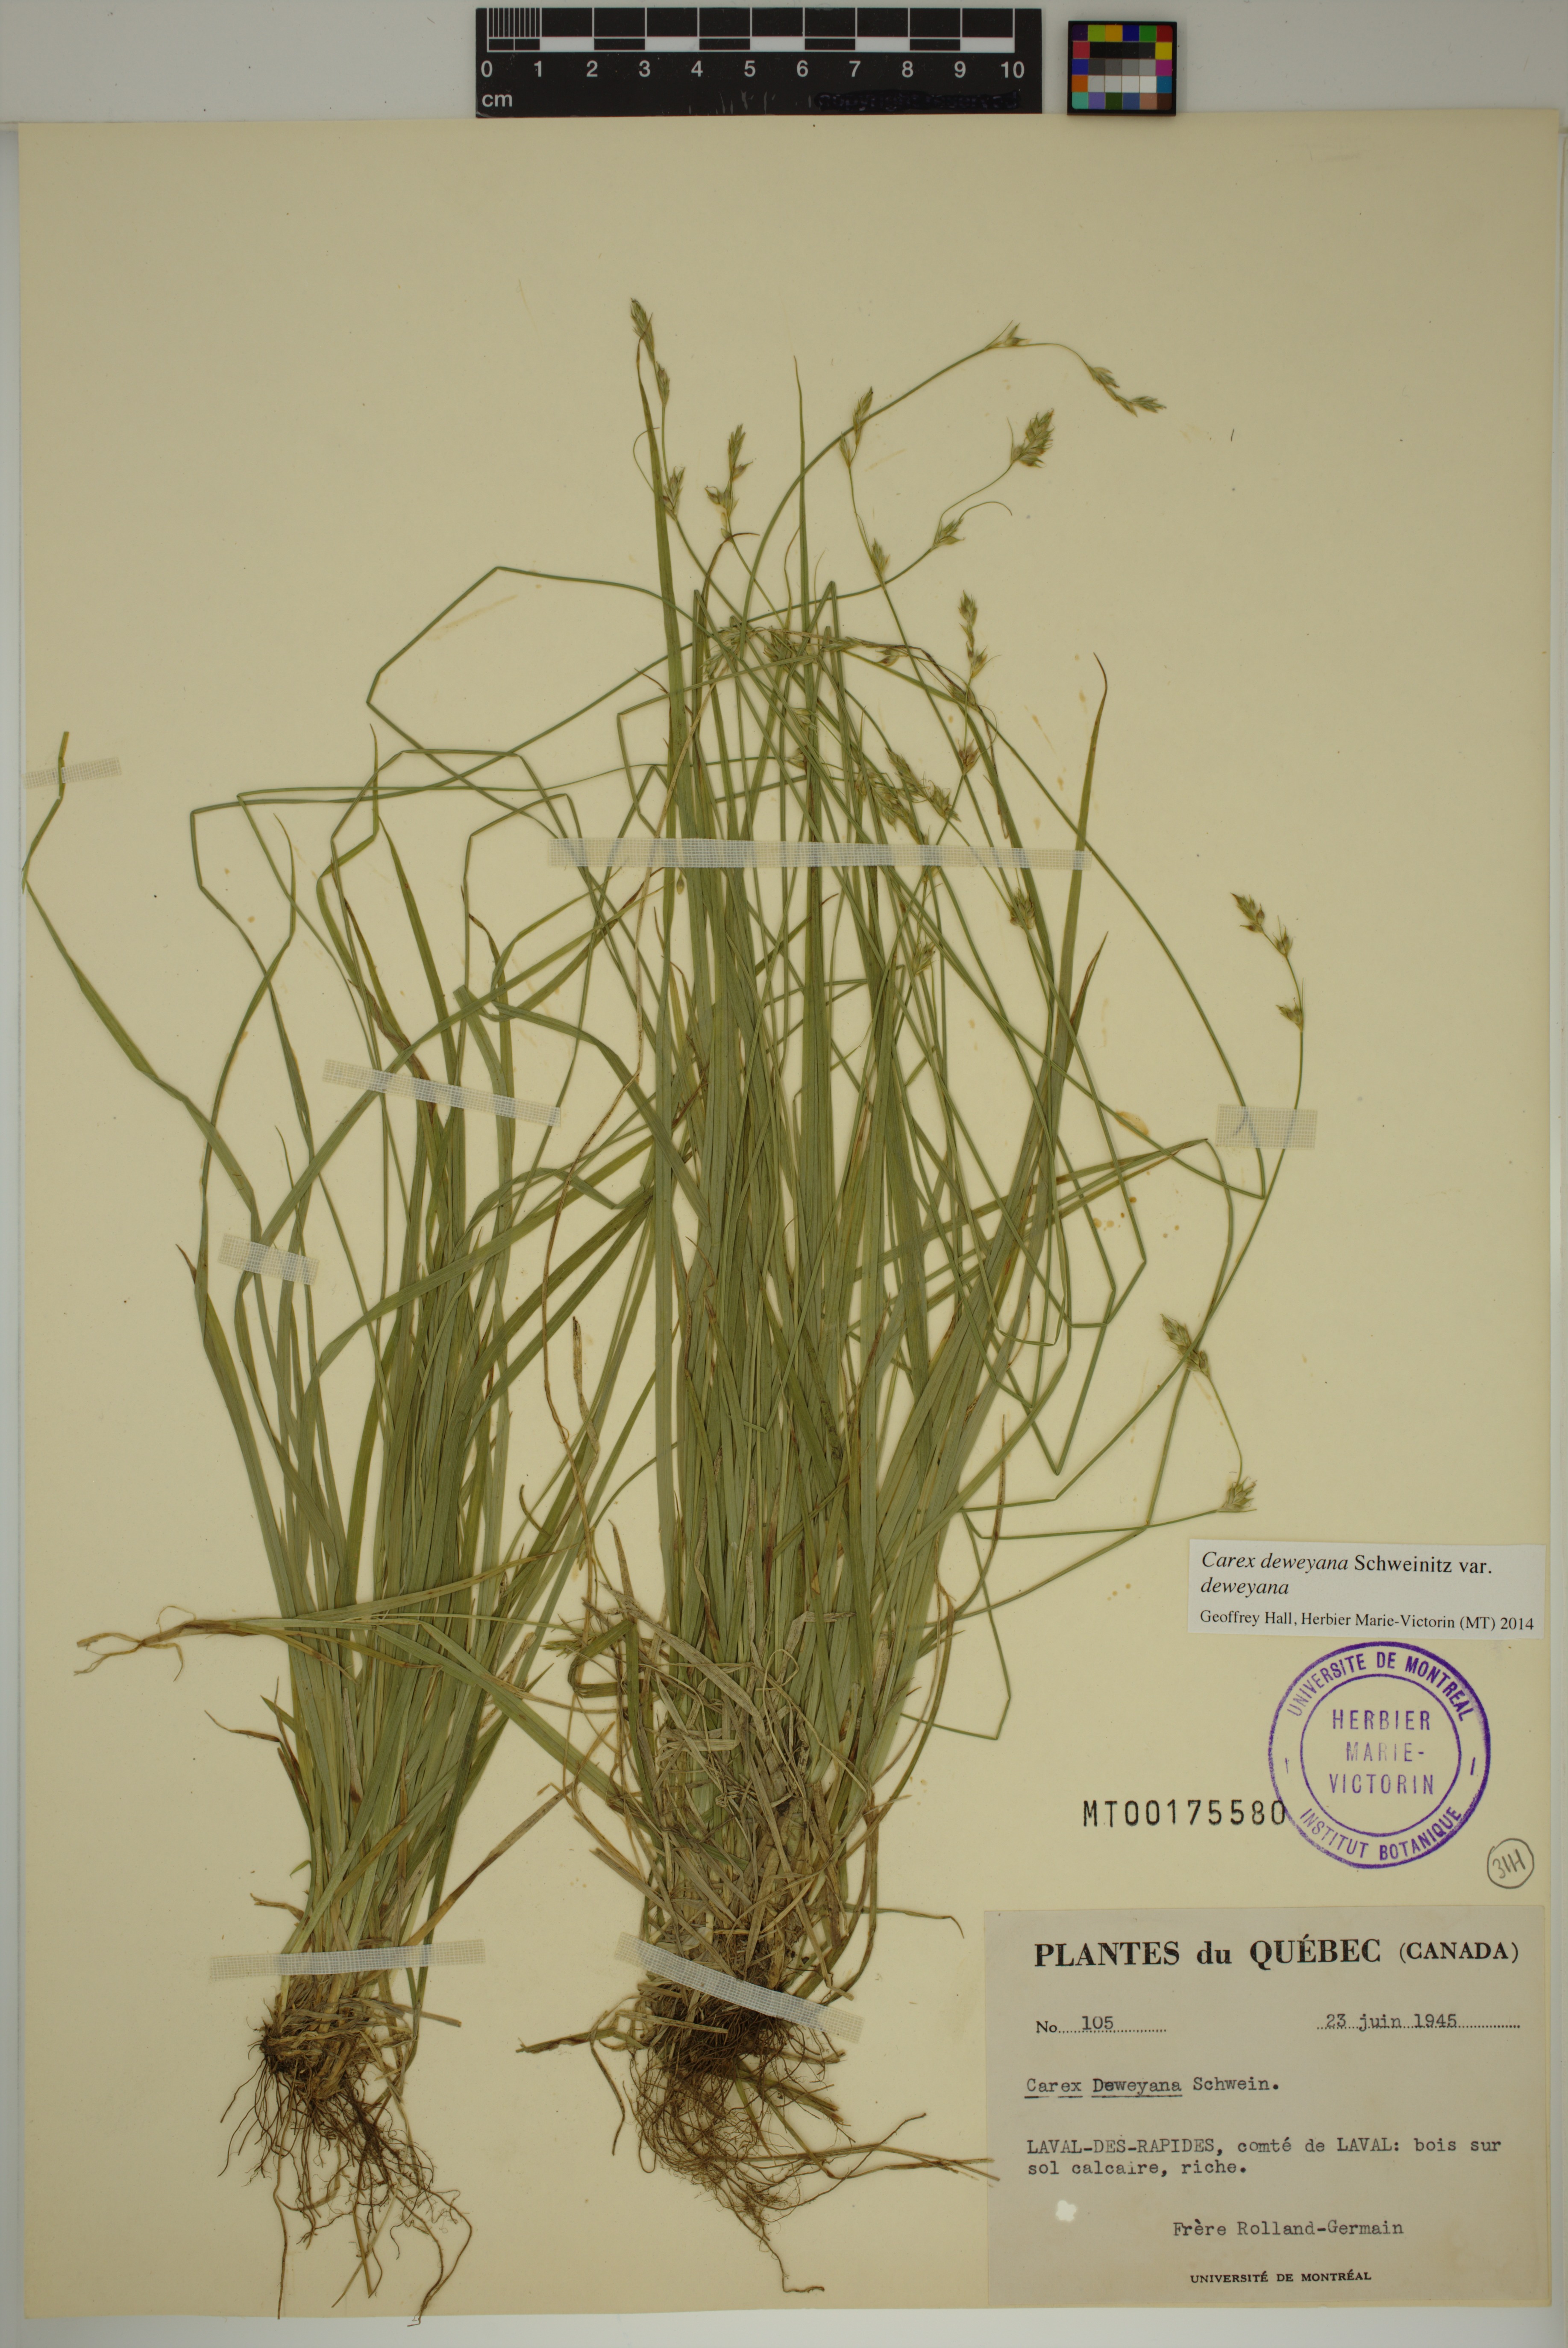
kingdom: Plantae
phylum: Tracheophyta
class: Liliopsida
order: Poales
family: Cyperaceae
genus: Carex
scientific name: Carex deweyana
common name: Dewey's sedge
